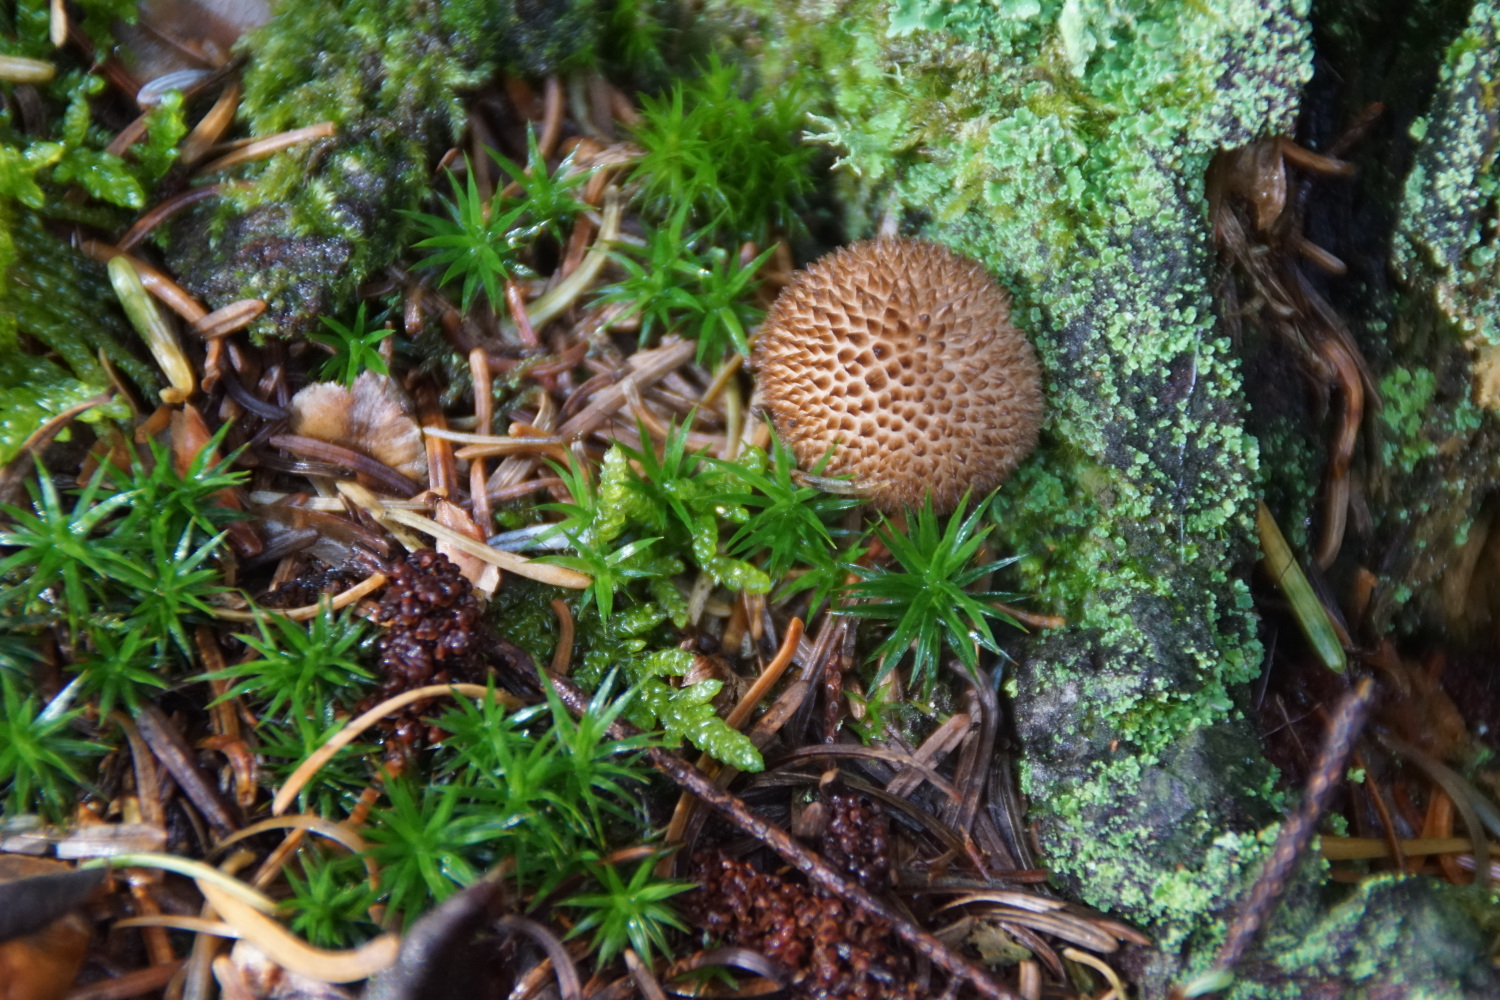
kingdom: Fungi
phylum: Basidiomycota
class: Agaricomycetes
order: Agaricales
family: Lycoperdaceae
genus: Lycoperdon
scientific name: Lycoperdon nigrescens
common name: sortagtig støvbold
